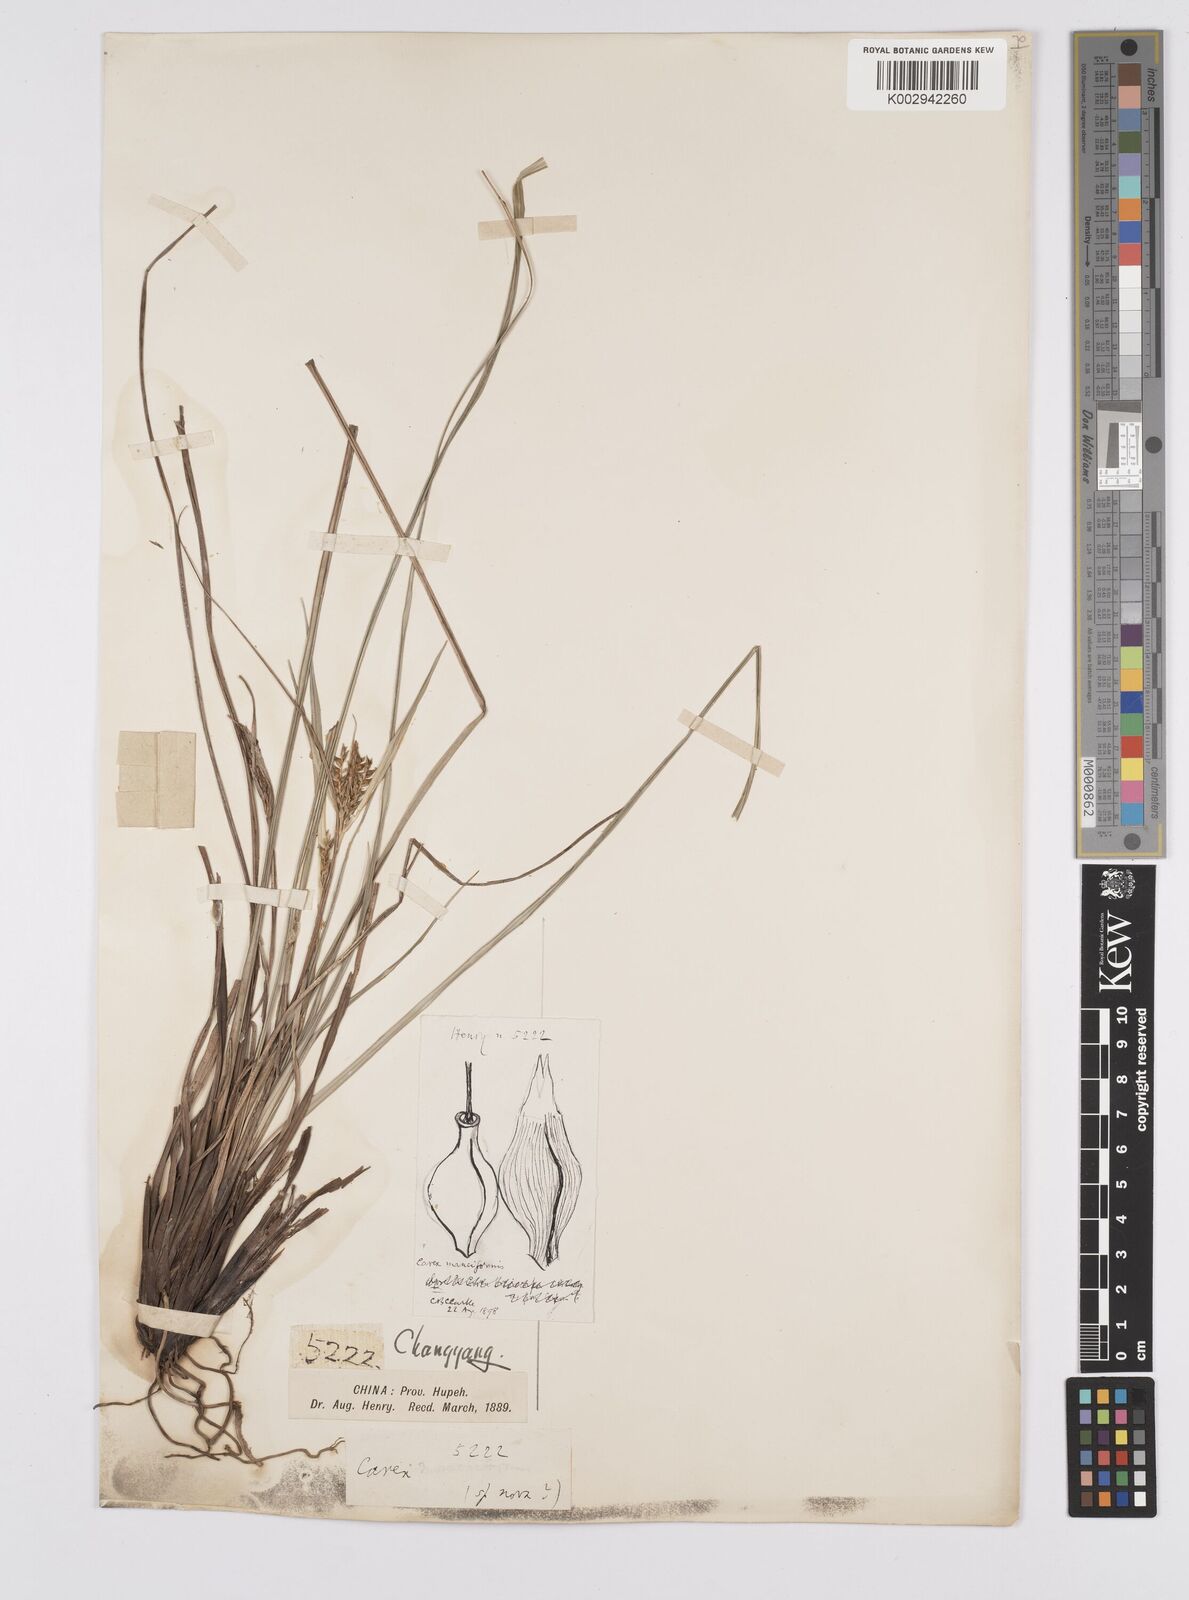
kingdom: Plantae
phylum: Tracheophyta
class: Liliopsida
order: Poales
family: Cyperaceae
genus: Carex
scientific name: Carex manciformis
